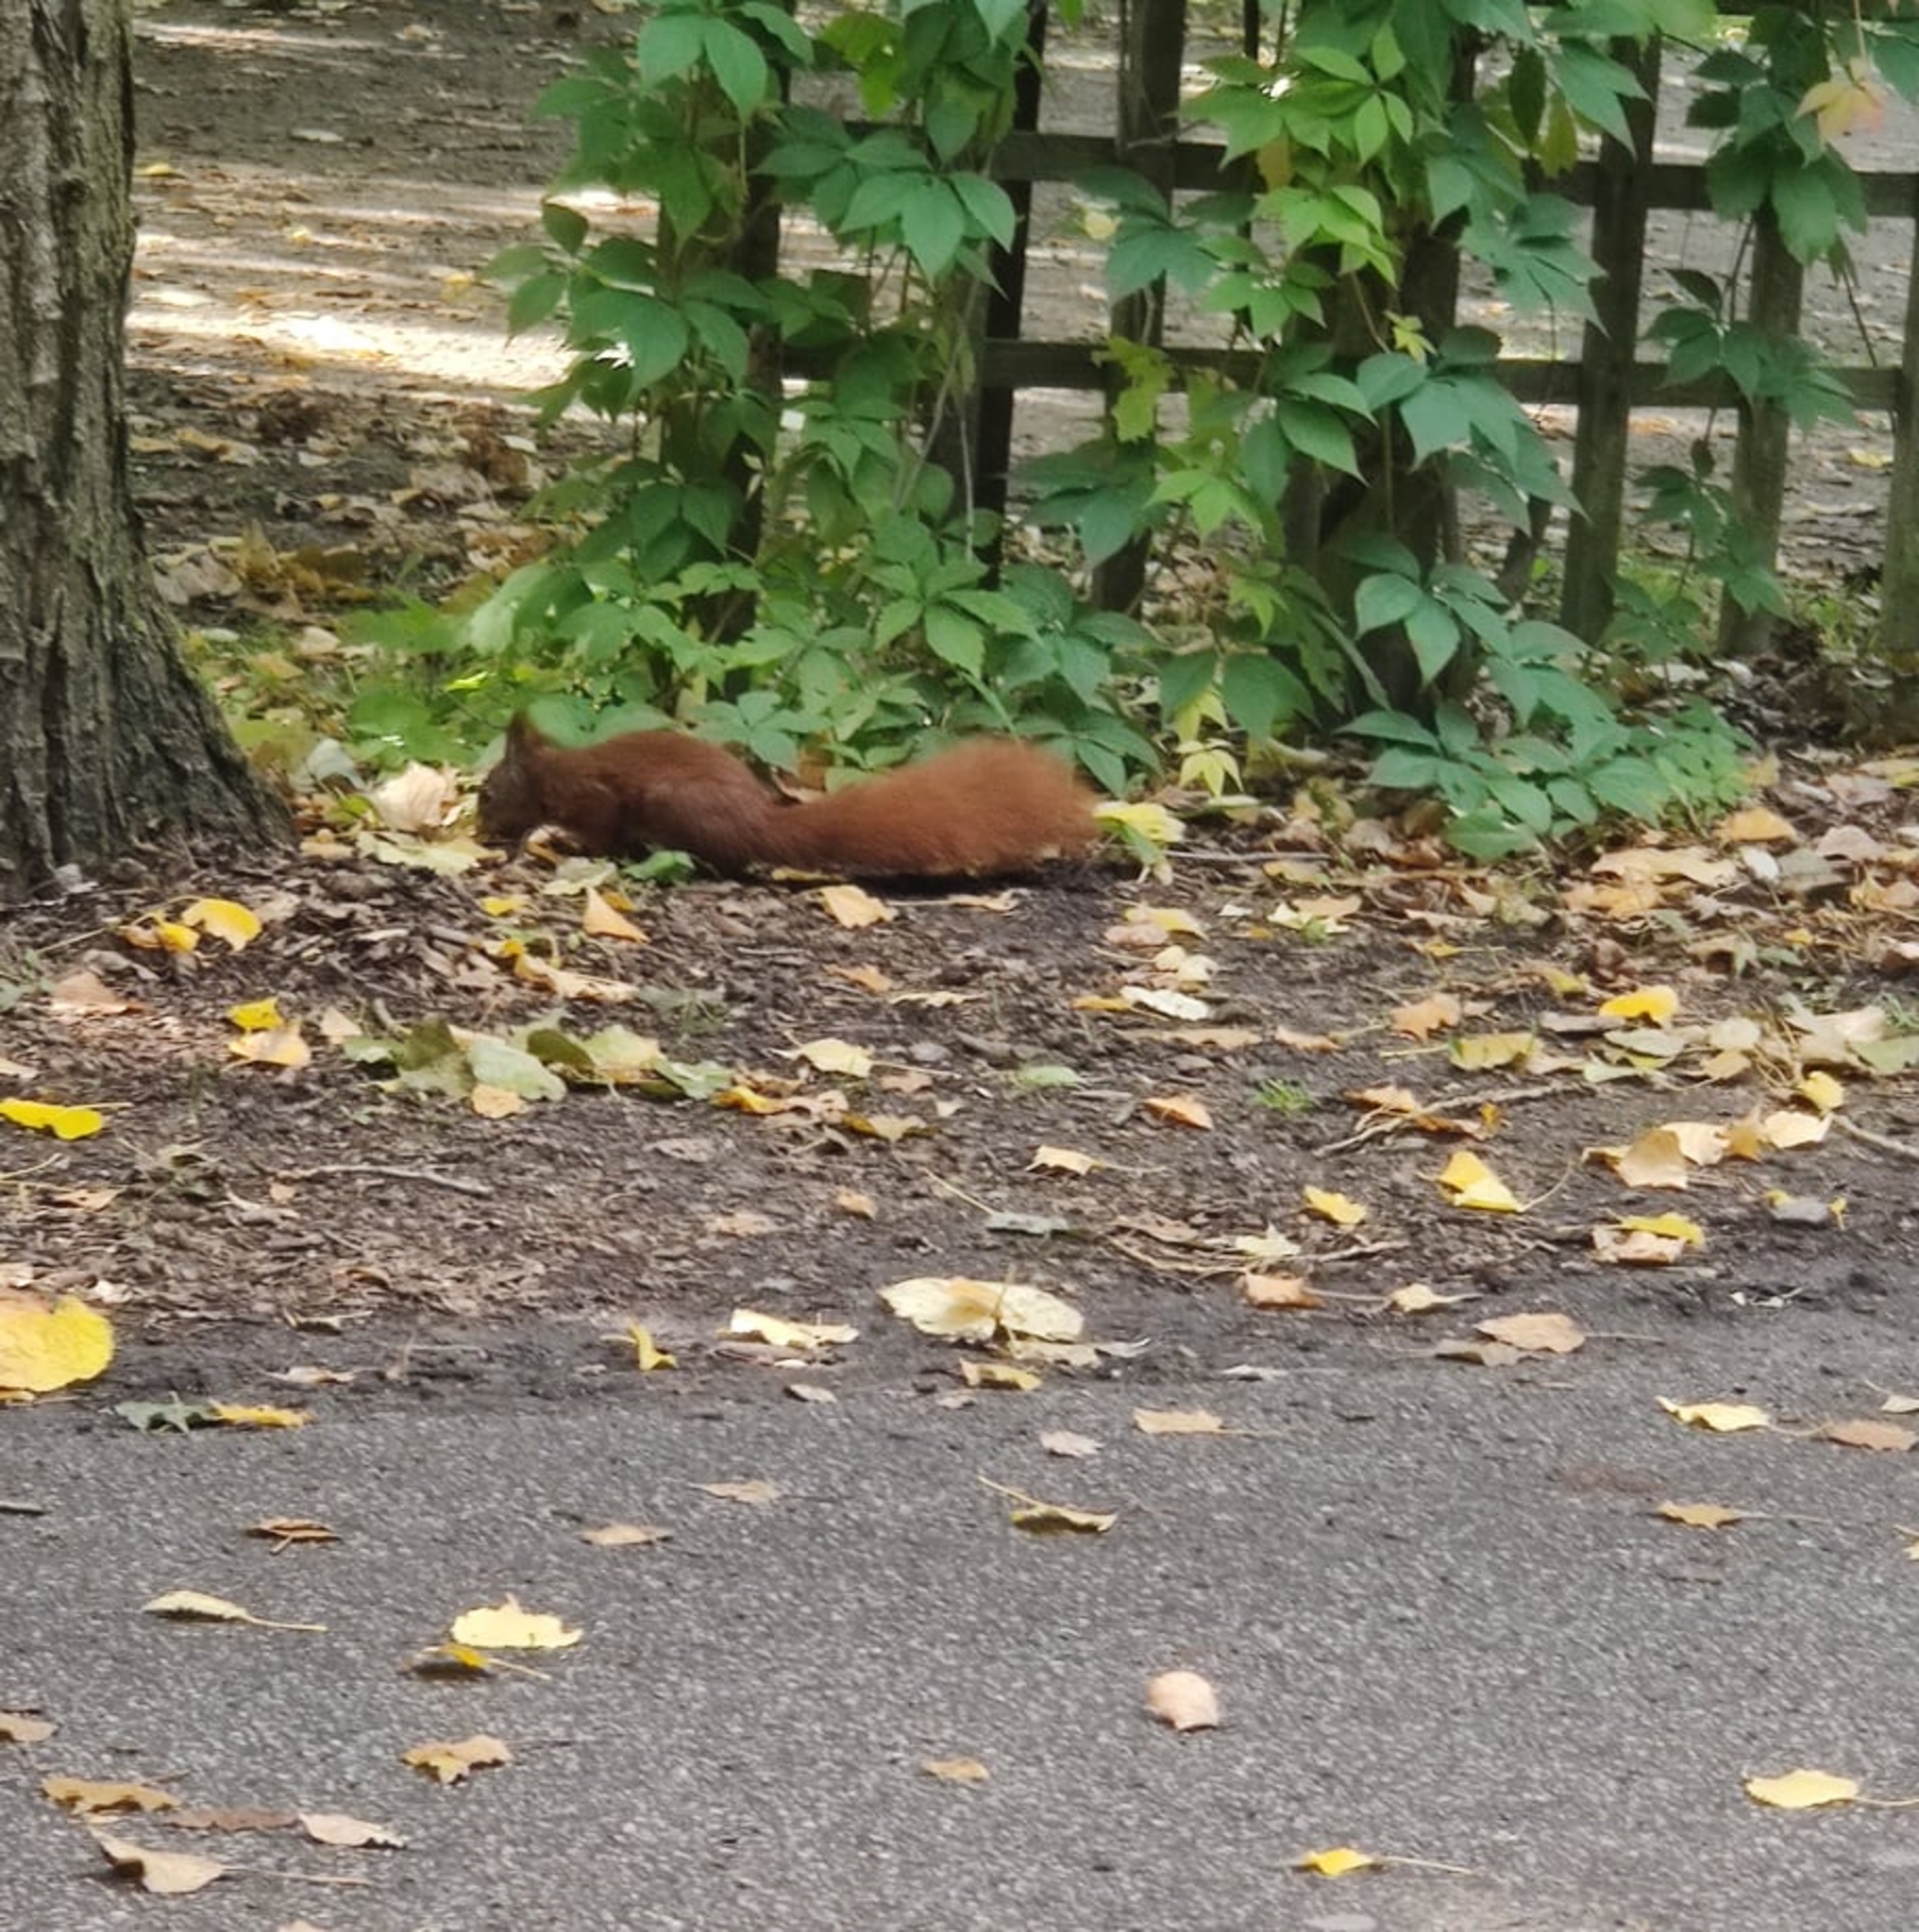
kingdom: Animalia
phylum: Chordata
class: Mammalia
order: Rodentia
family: Sciuridae
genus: Sciurus
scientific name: Sciurus vulgaris
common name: Egern
